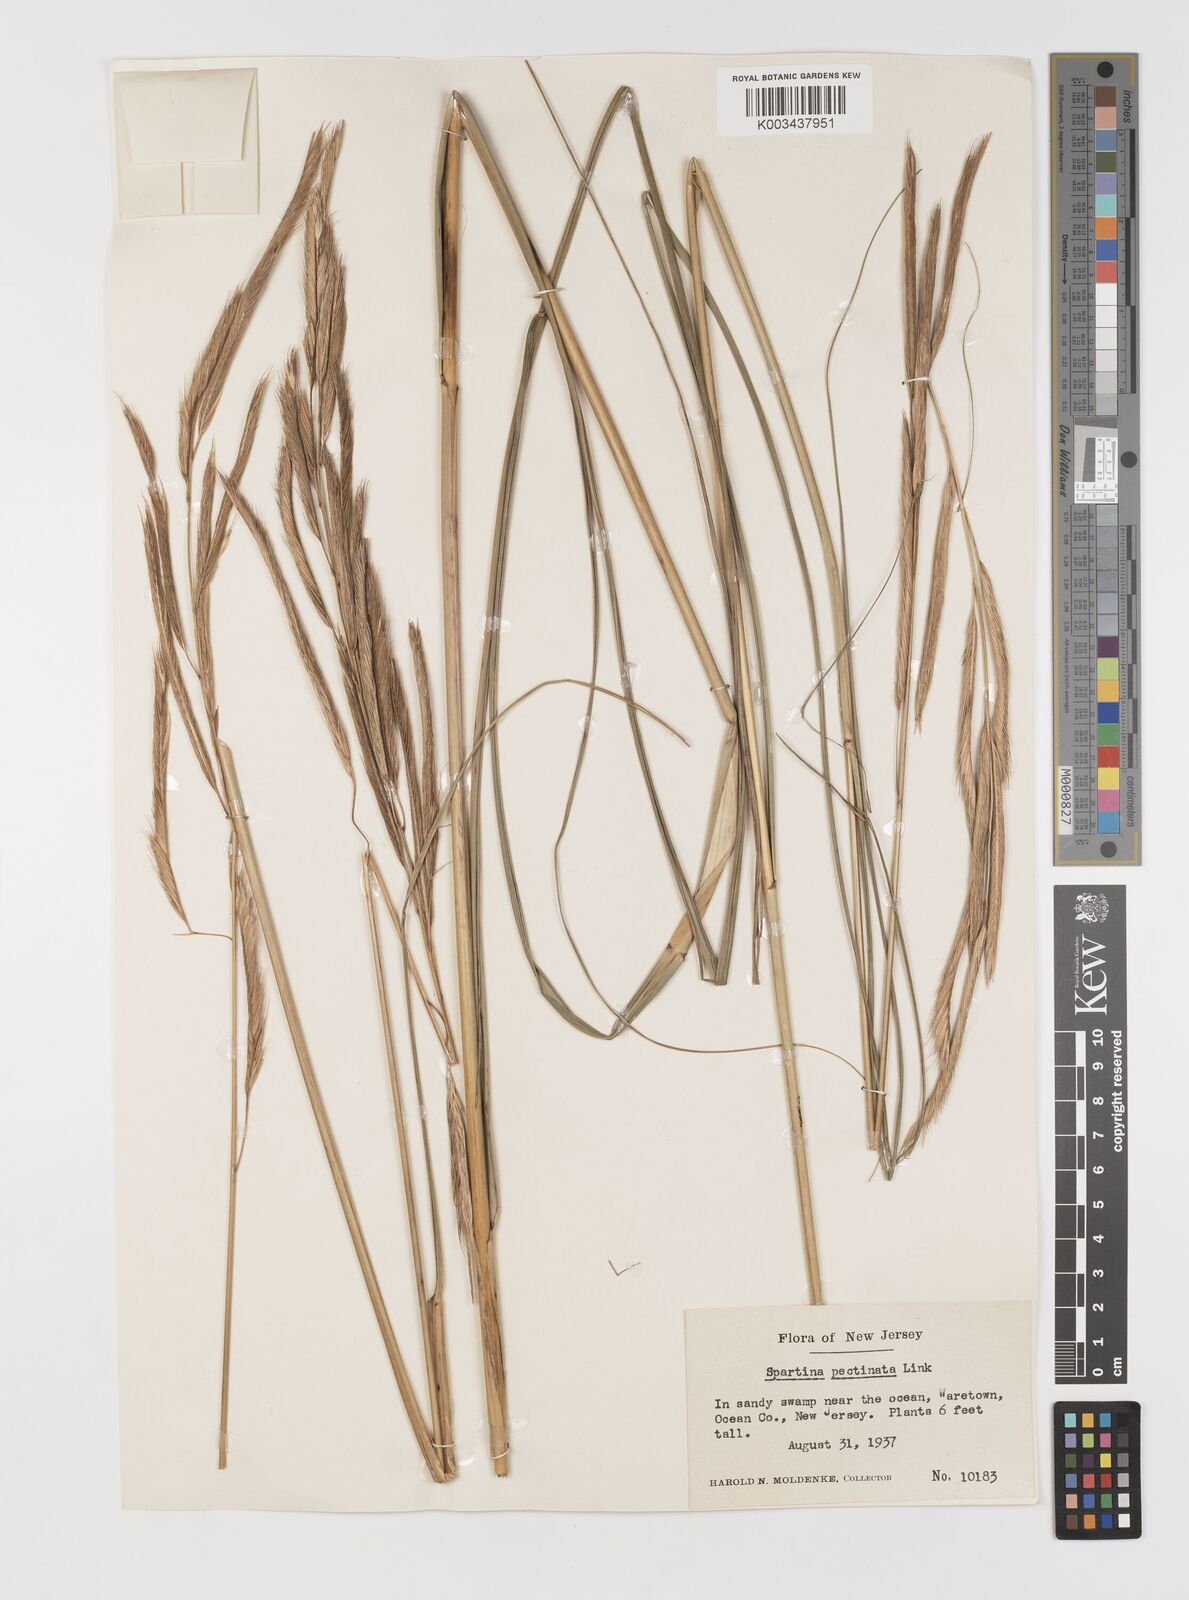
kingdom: Plantae
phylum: Tracheophyta
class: Liliopsida
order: Poales
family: Poaceae
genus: Sporobolus
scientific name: Sporobolus michauxianus
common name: Freshwater cordgrass
